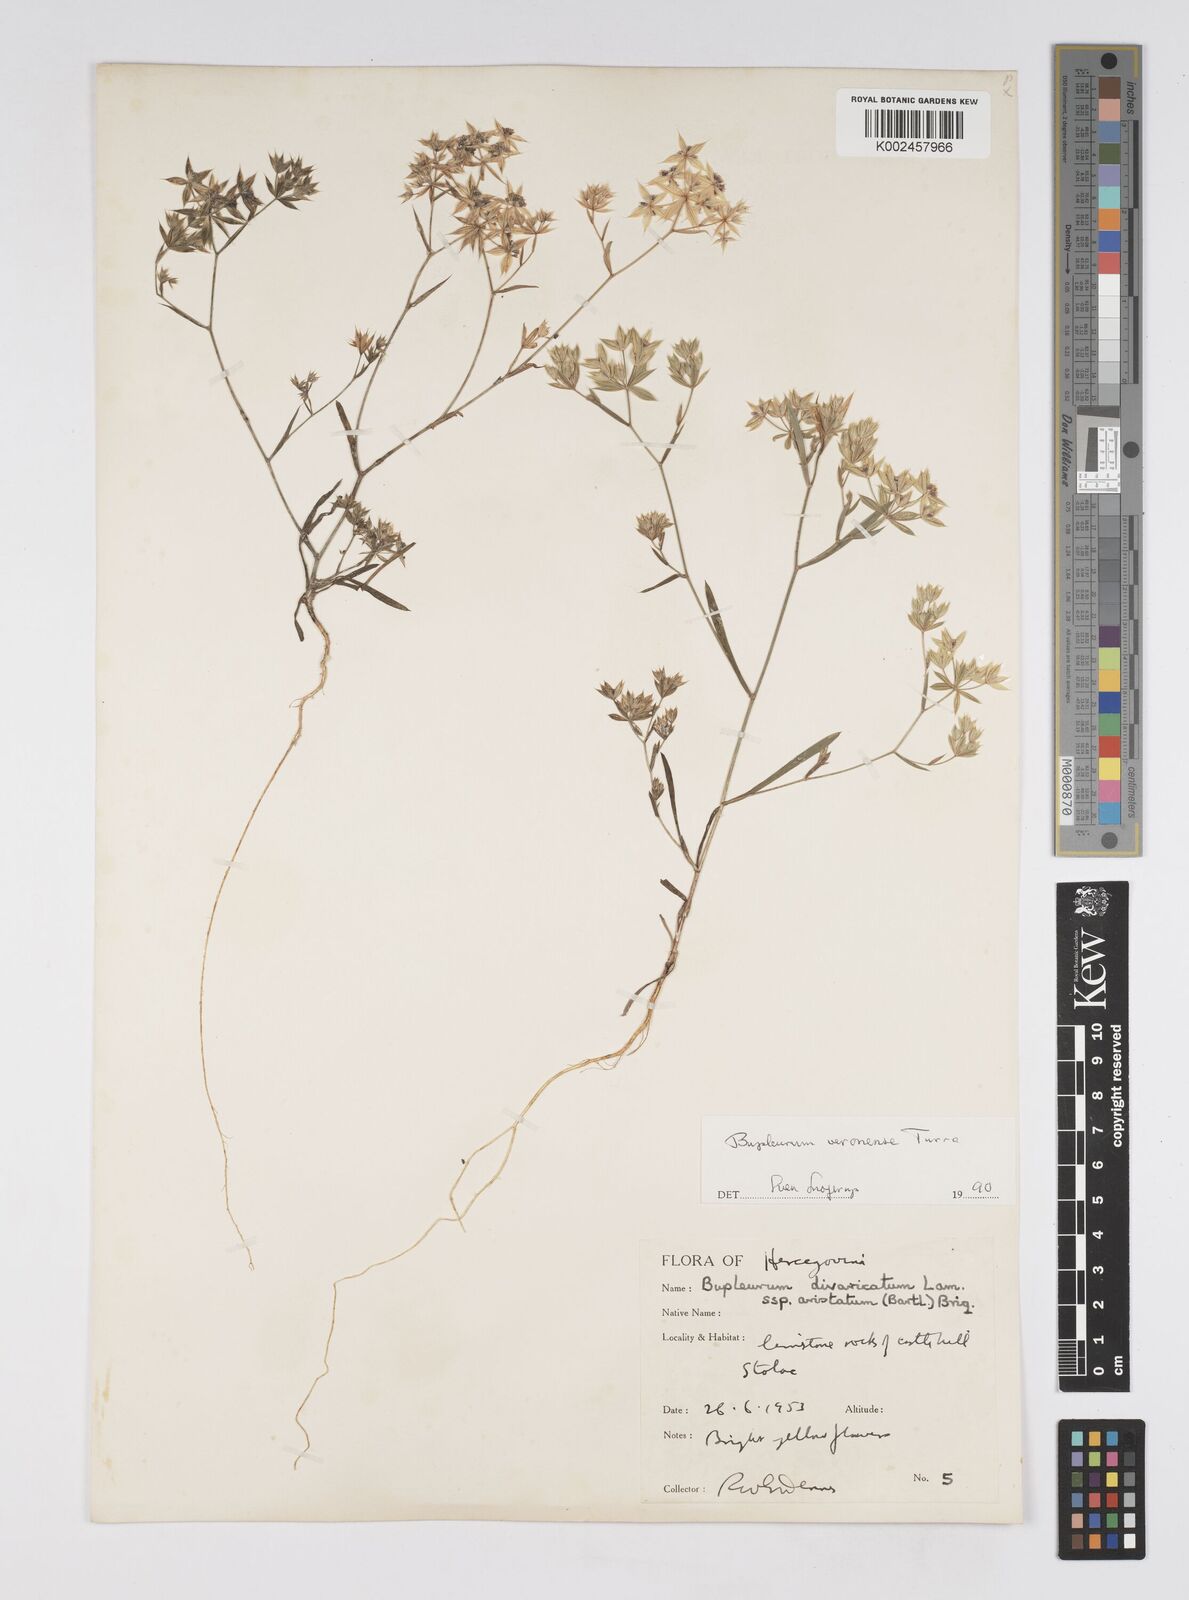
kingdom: Plantae
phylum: Tracheophyta
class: Magnoliopsida
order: Apiales
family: Apiaceae
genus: Bupleurum
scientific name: Bupleurum glumaceum
